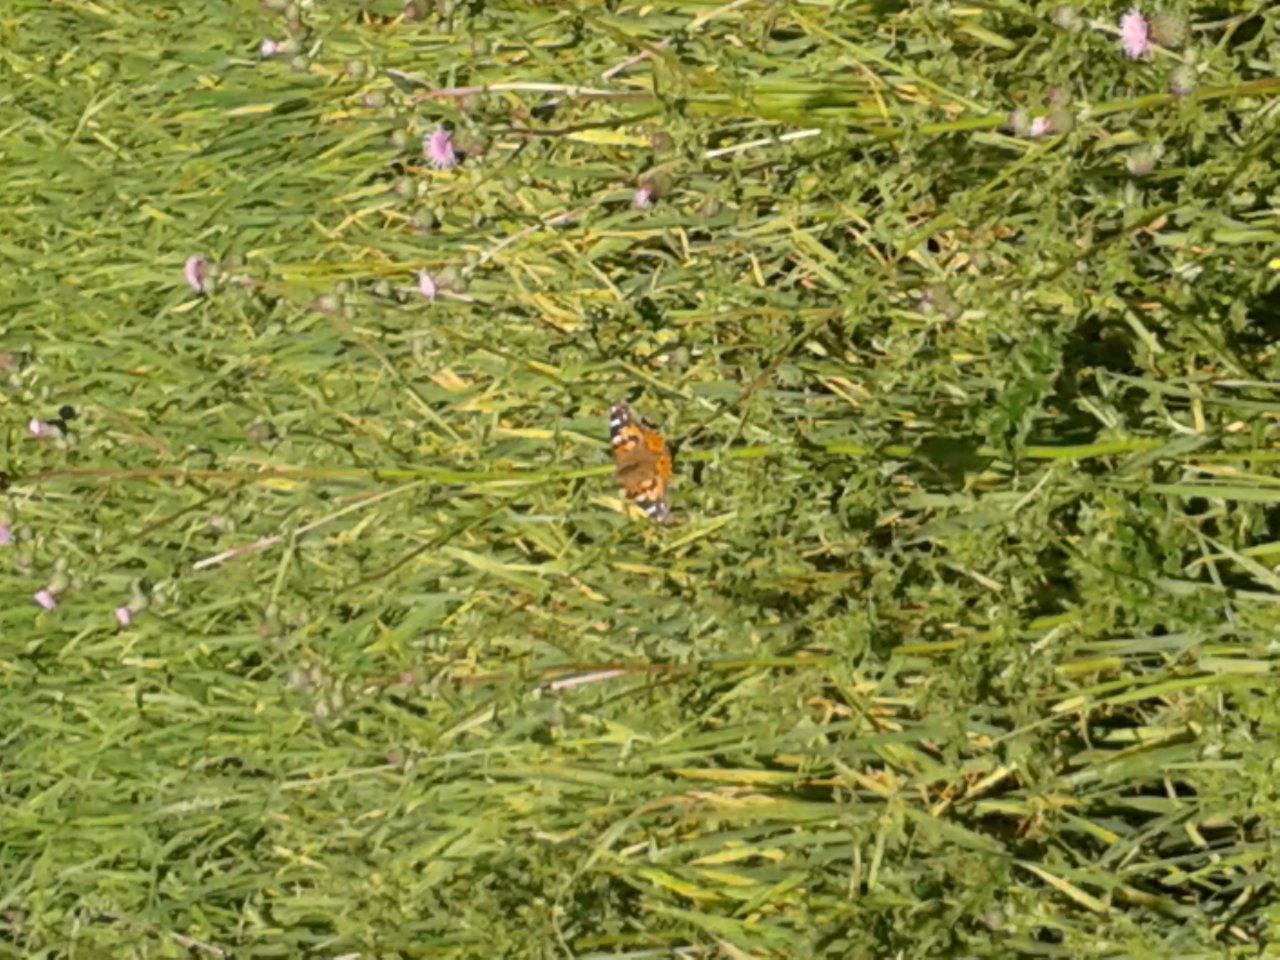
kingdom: Animalia
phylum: Arthropoda
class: Insecta
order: Lepidoptera
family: Nymphalidae
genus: Vanessa
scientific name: Vanessa cardui
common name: Painted Lady
